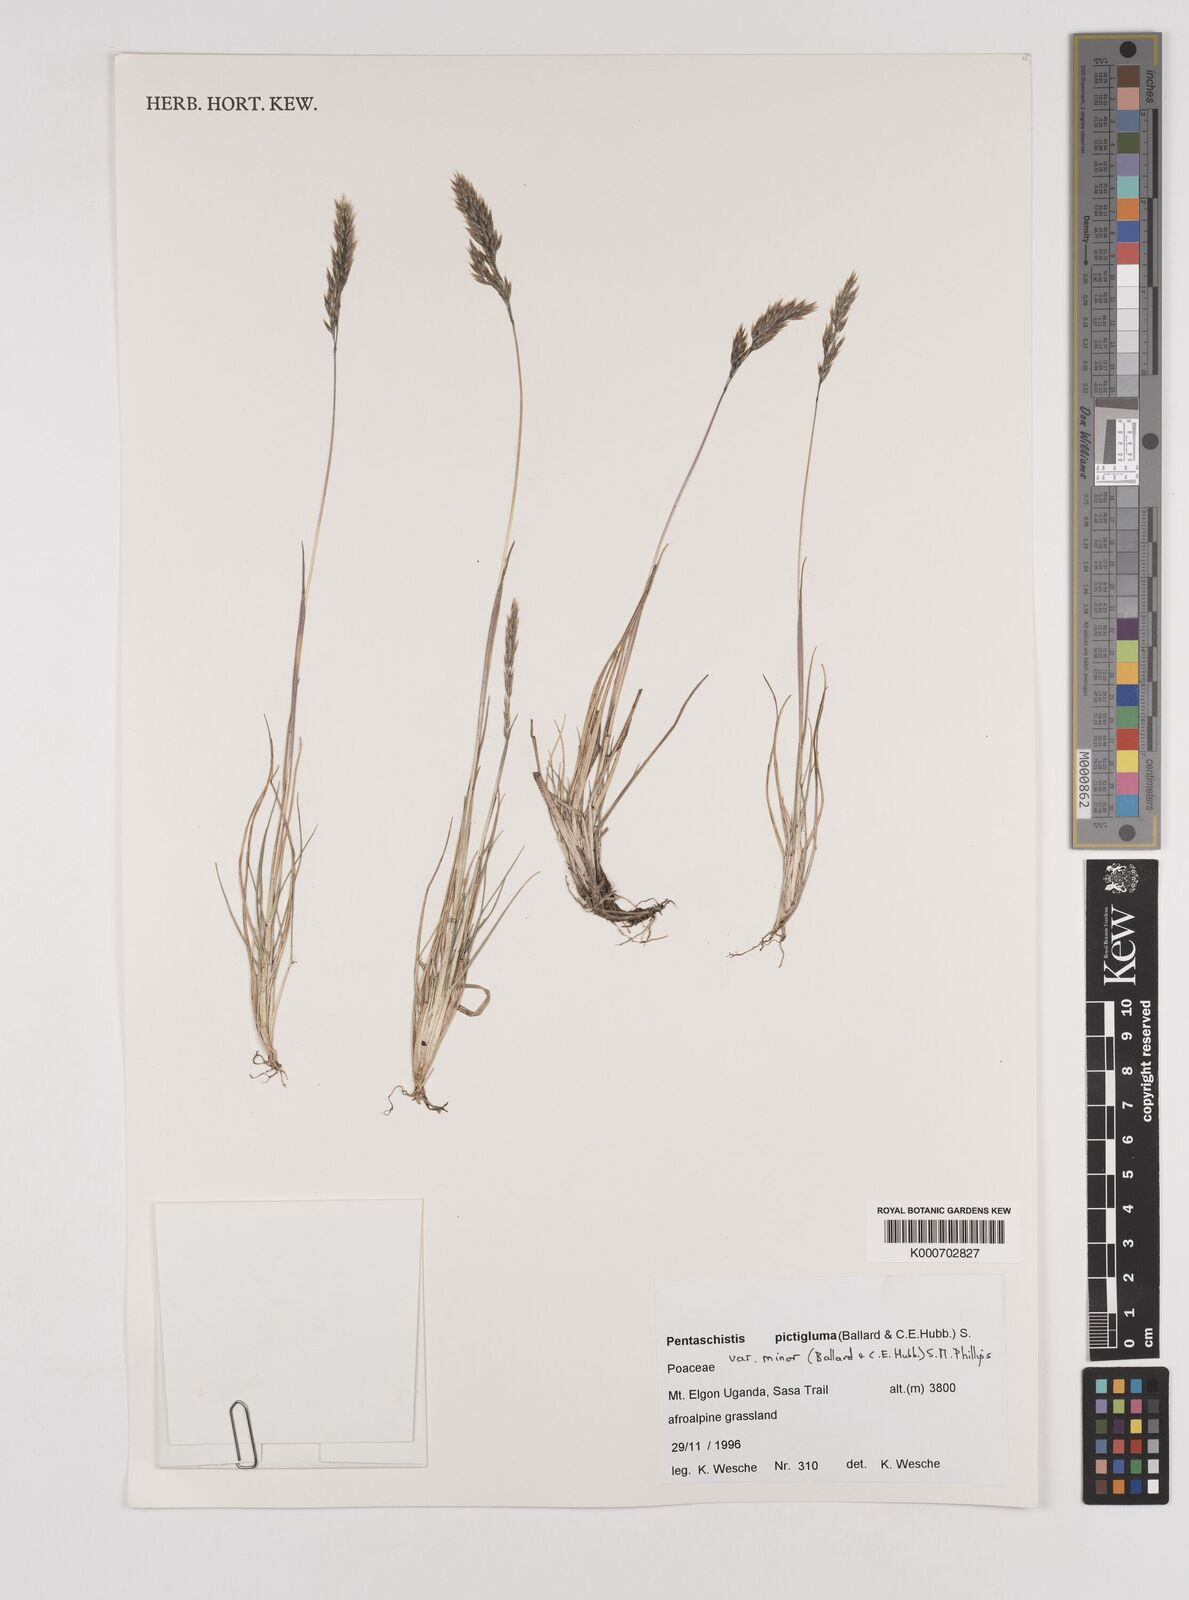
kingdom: Plantae
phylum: Tracheophyta
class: Liliopsida
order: Poales
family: Poaceae
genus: Pentameris
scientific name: Pentameris minor
